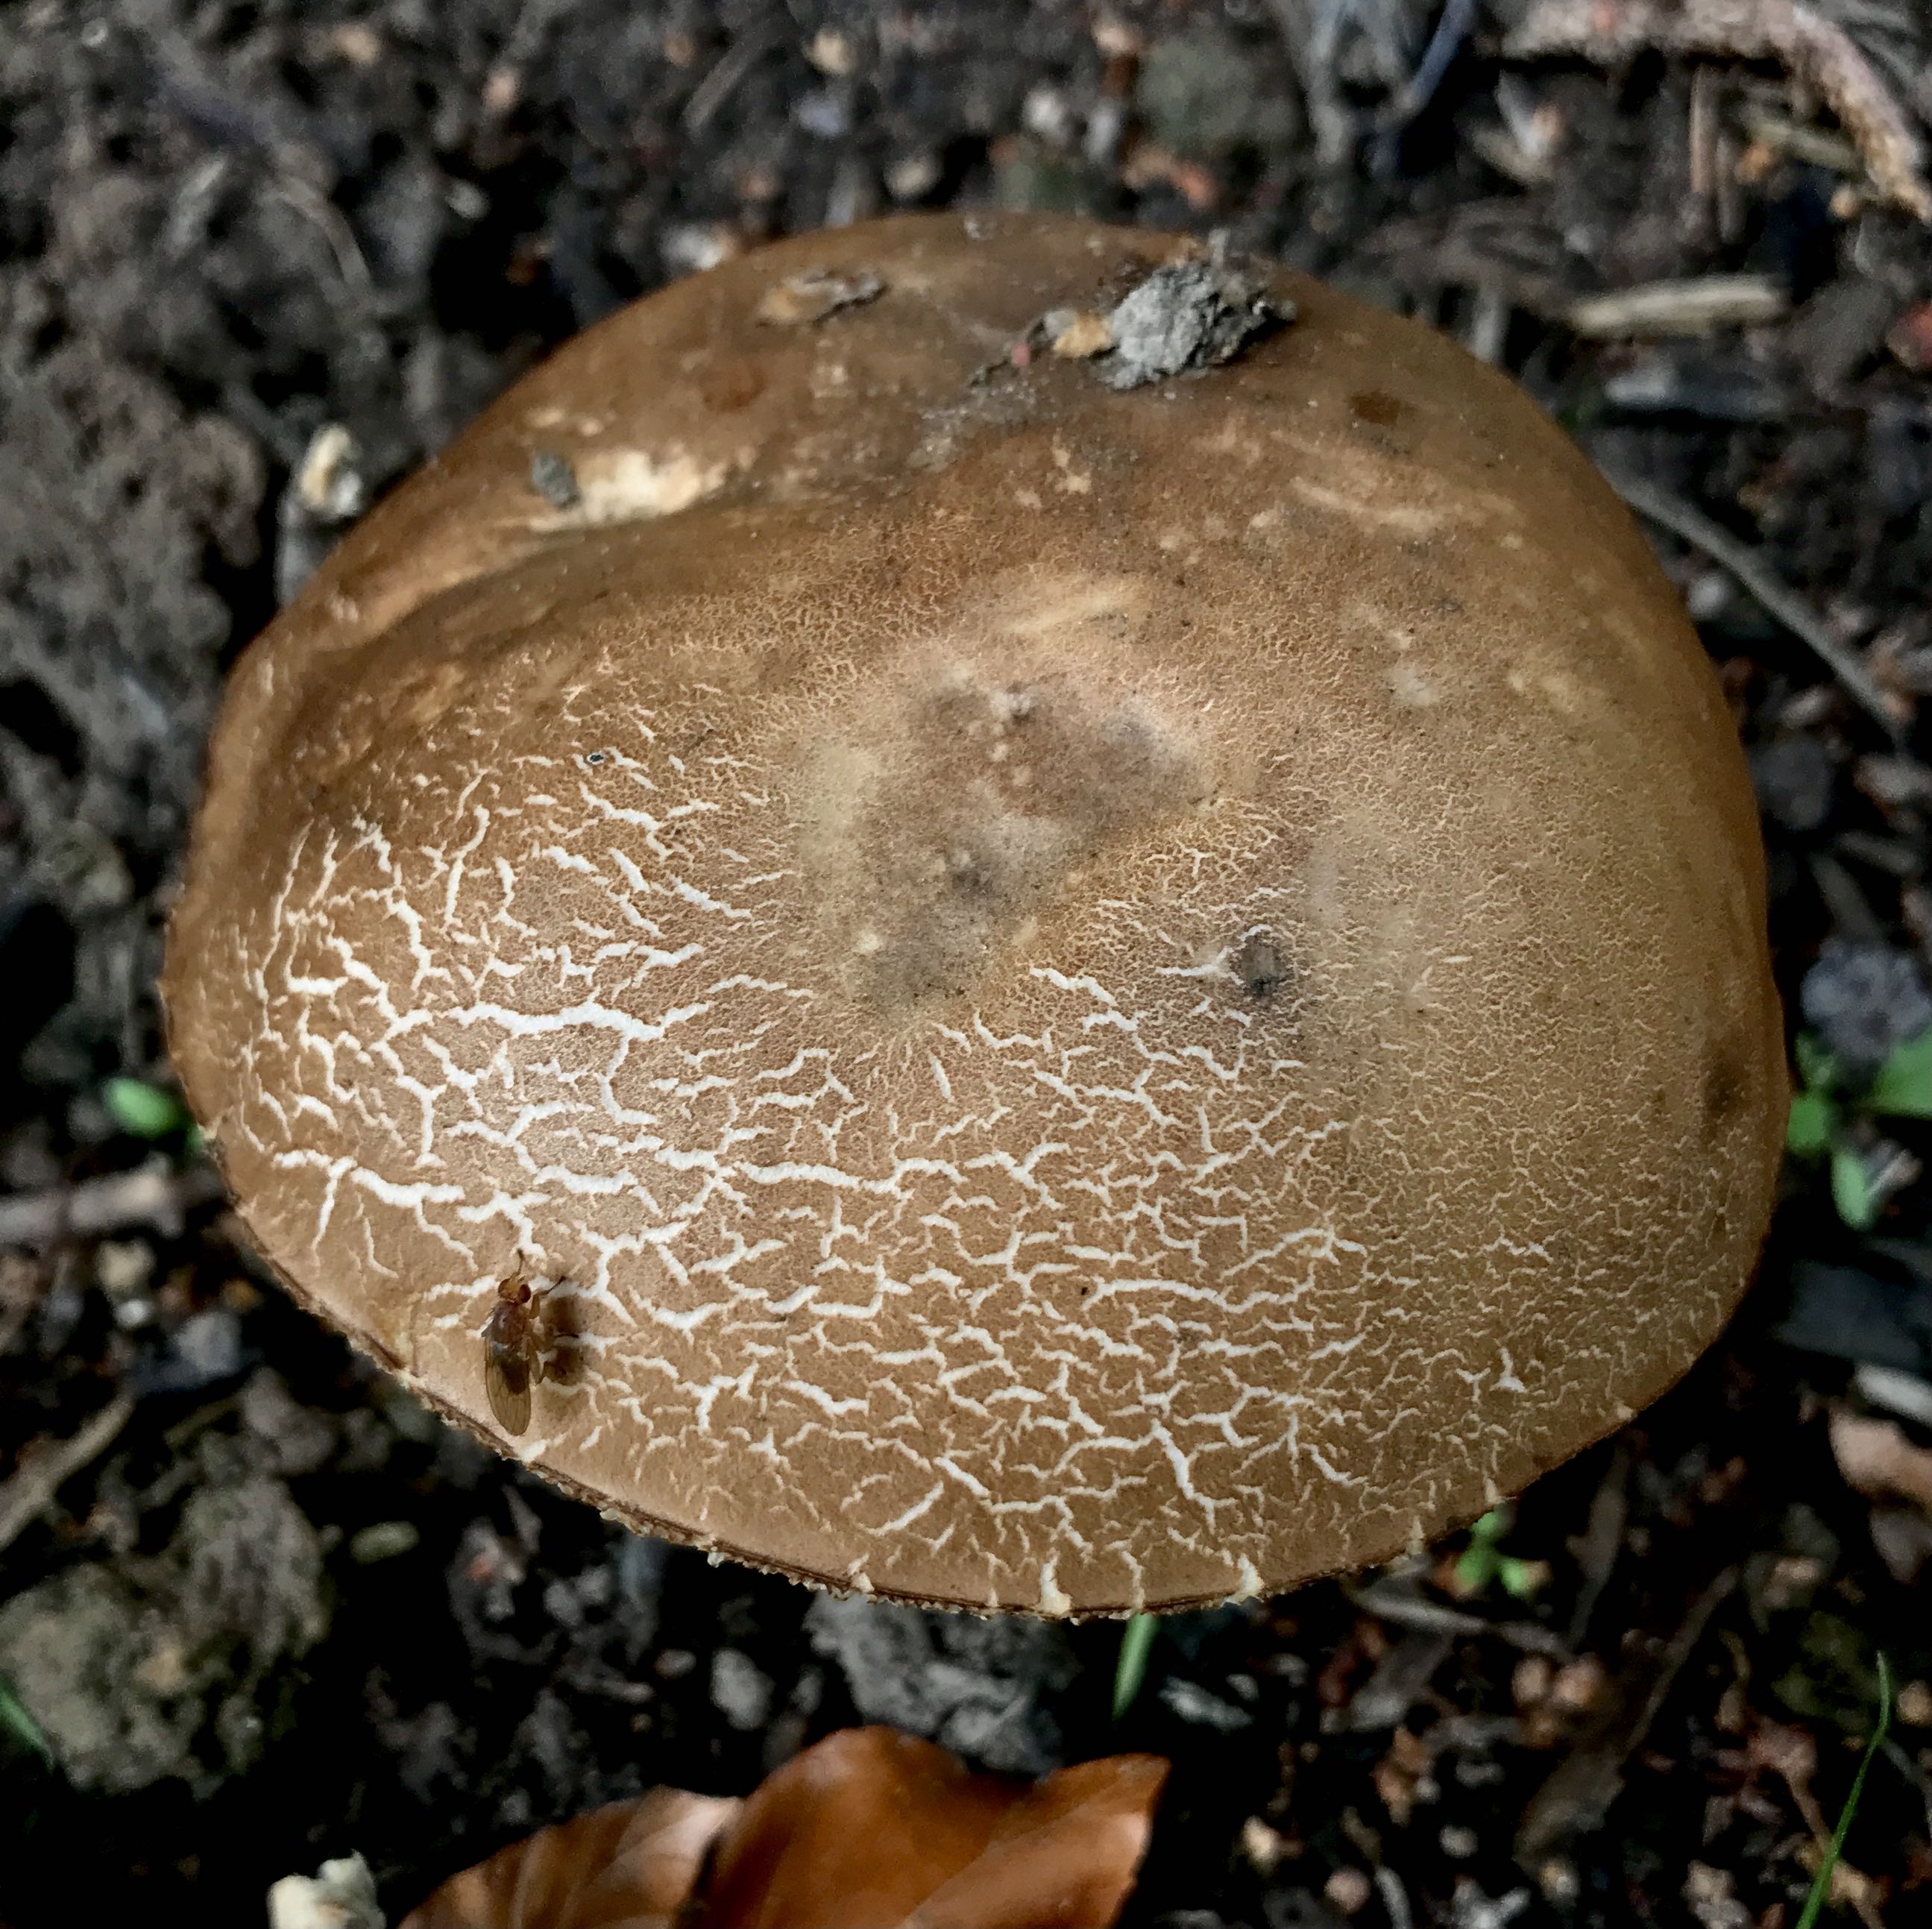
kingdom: Fungi
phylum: Basidiomycota
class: Agaricomycetes
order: Boletales
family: Boletaceae
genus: Leccinum
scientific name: Leccinum scabrum
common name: brun skælrørhat
